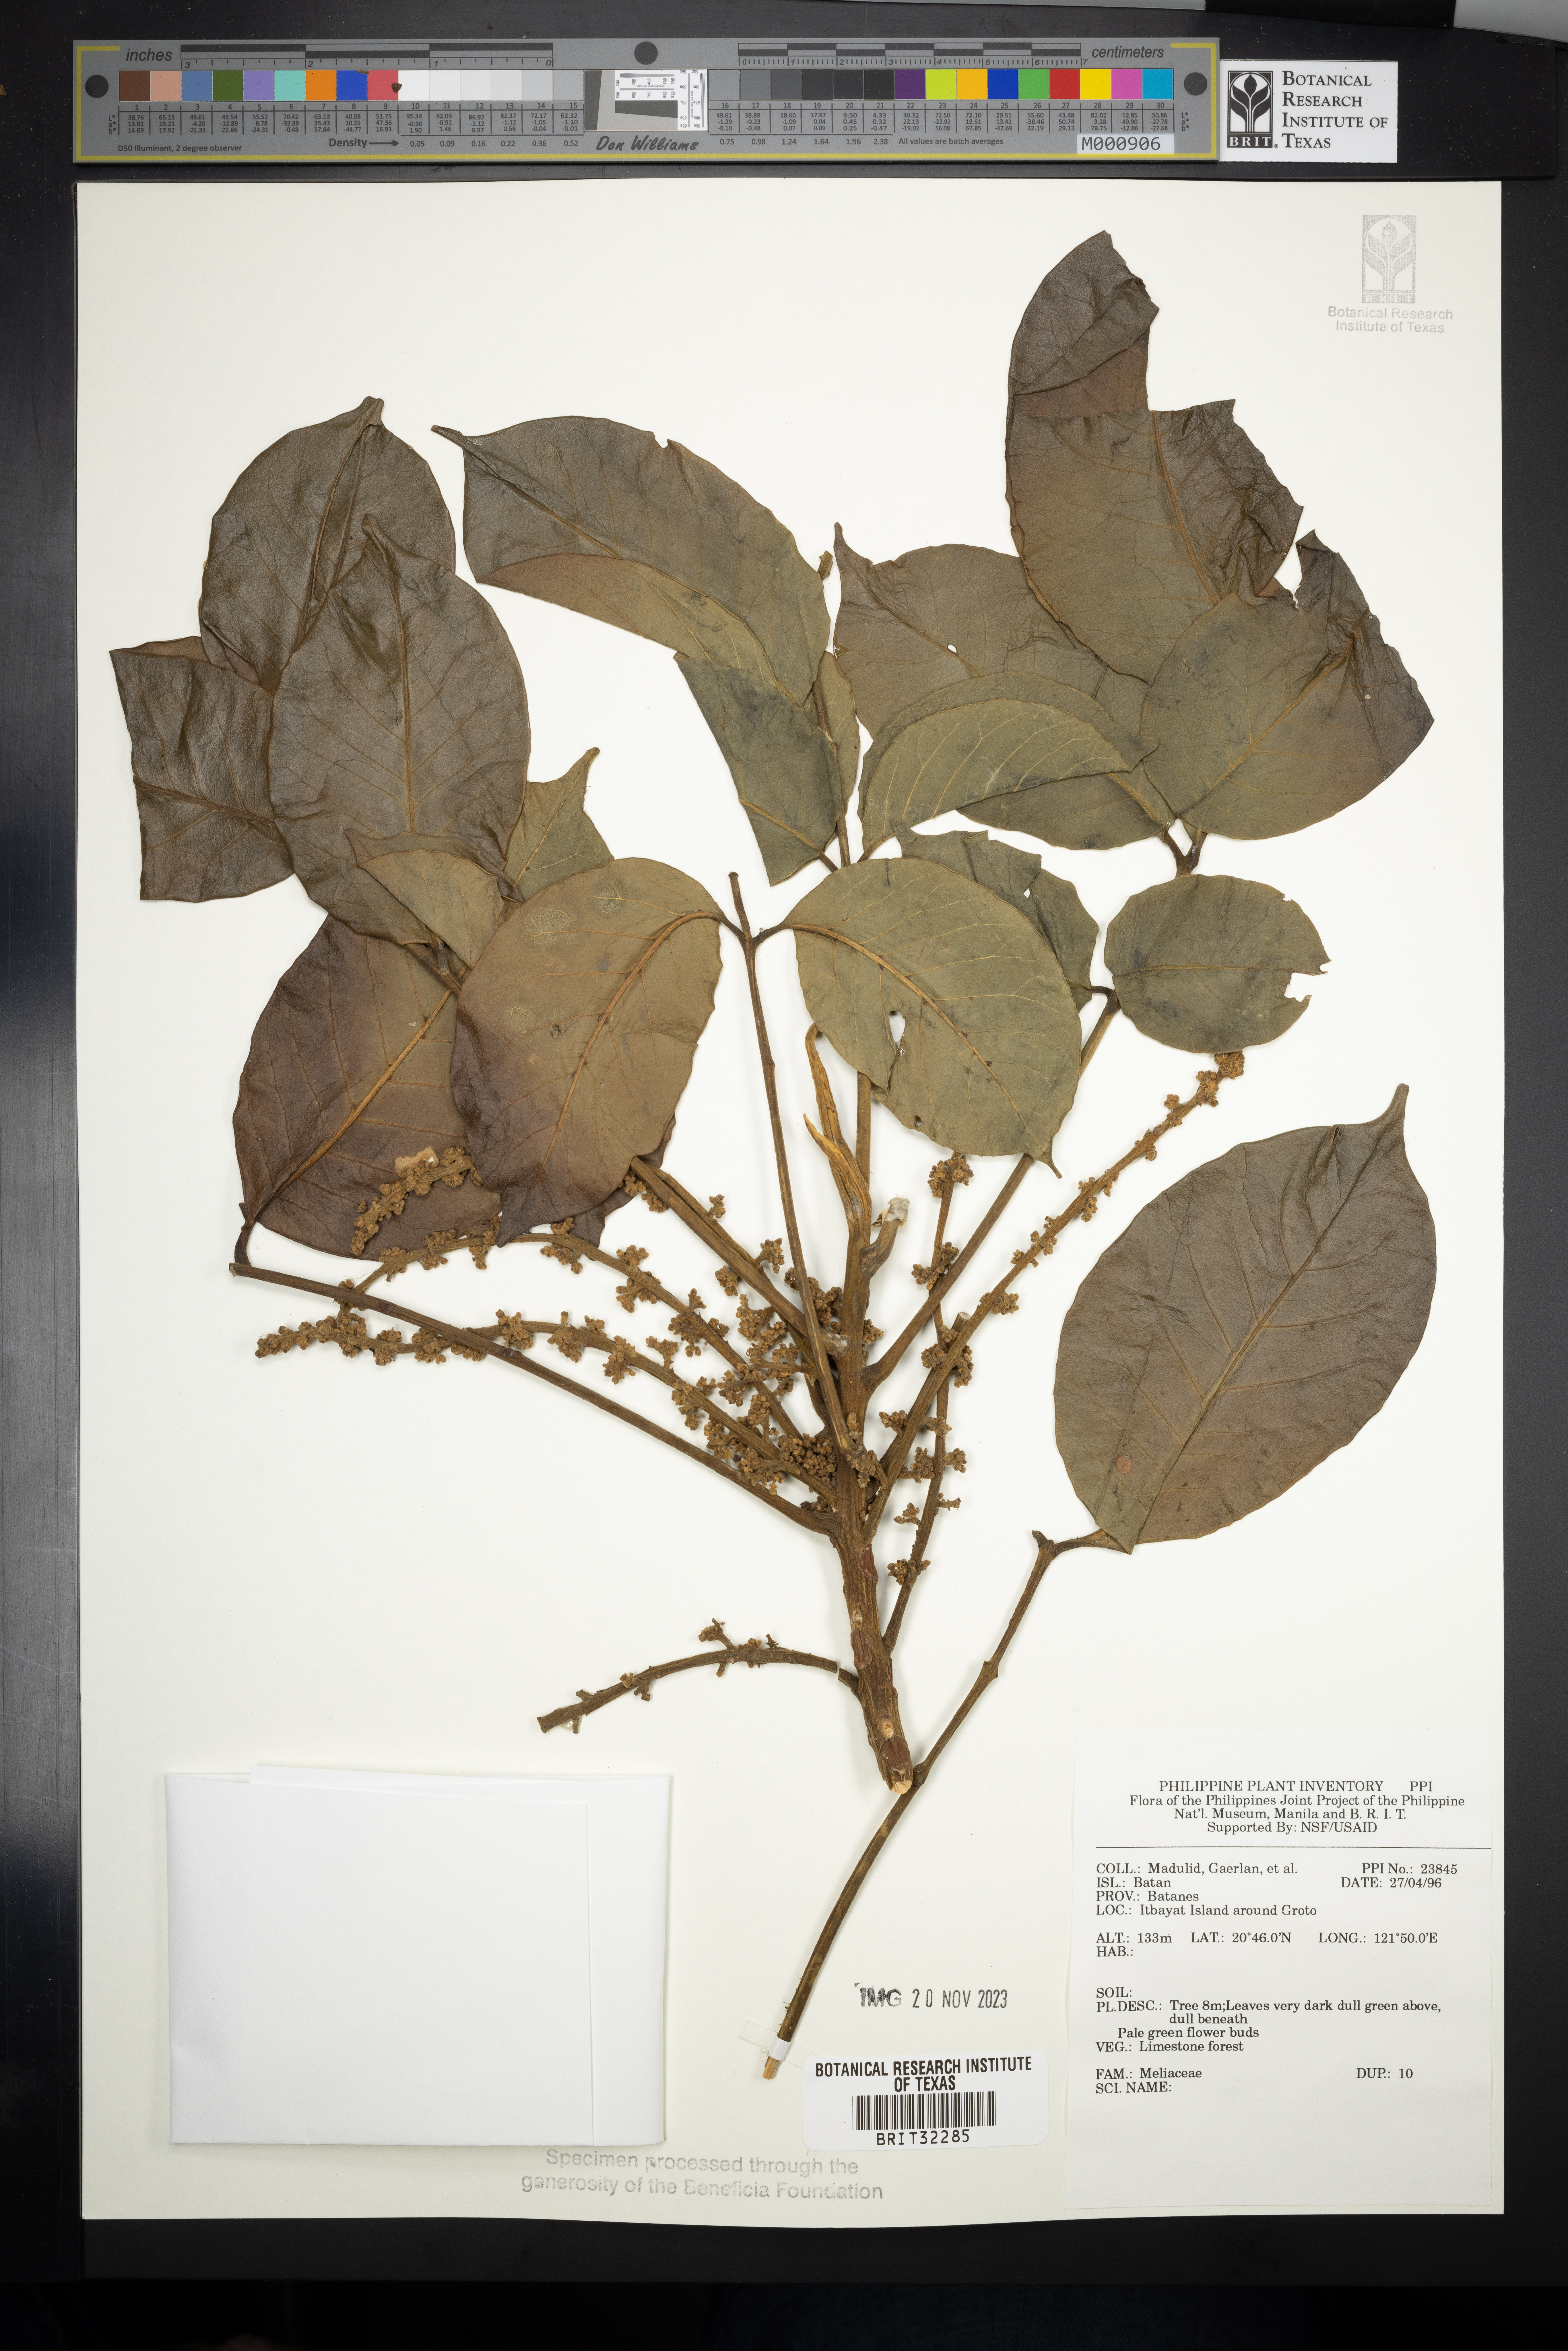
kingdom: Plantae
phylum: Tracheophyta
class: Magnoliopsida
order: Sapindales
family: Meliaceae
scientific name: Meliaceae
